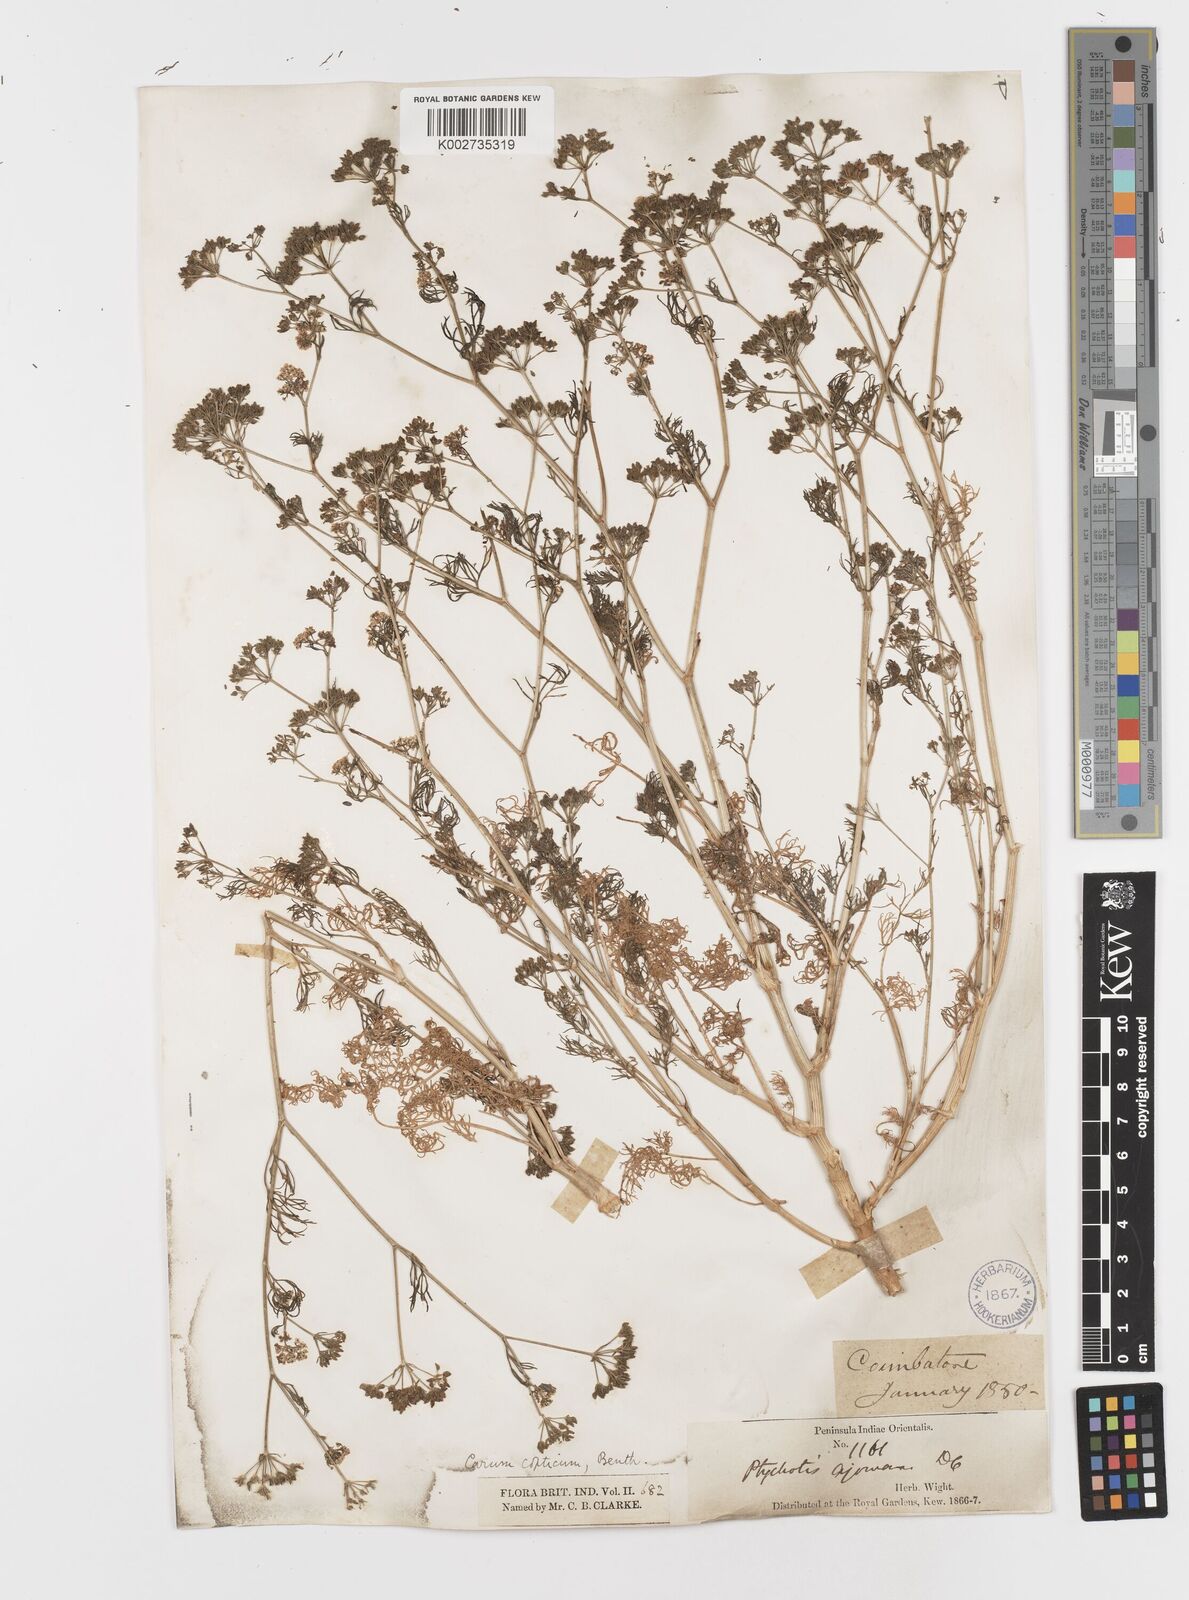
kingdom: Plantae
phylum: Tracheophyta
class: Magnoliopsida
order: Apiales
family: Apiaceae
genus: Trachyspermum
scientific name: Trachyspermum ammi
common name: Ajowan
